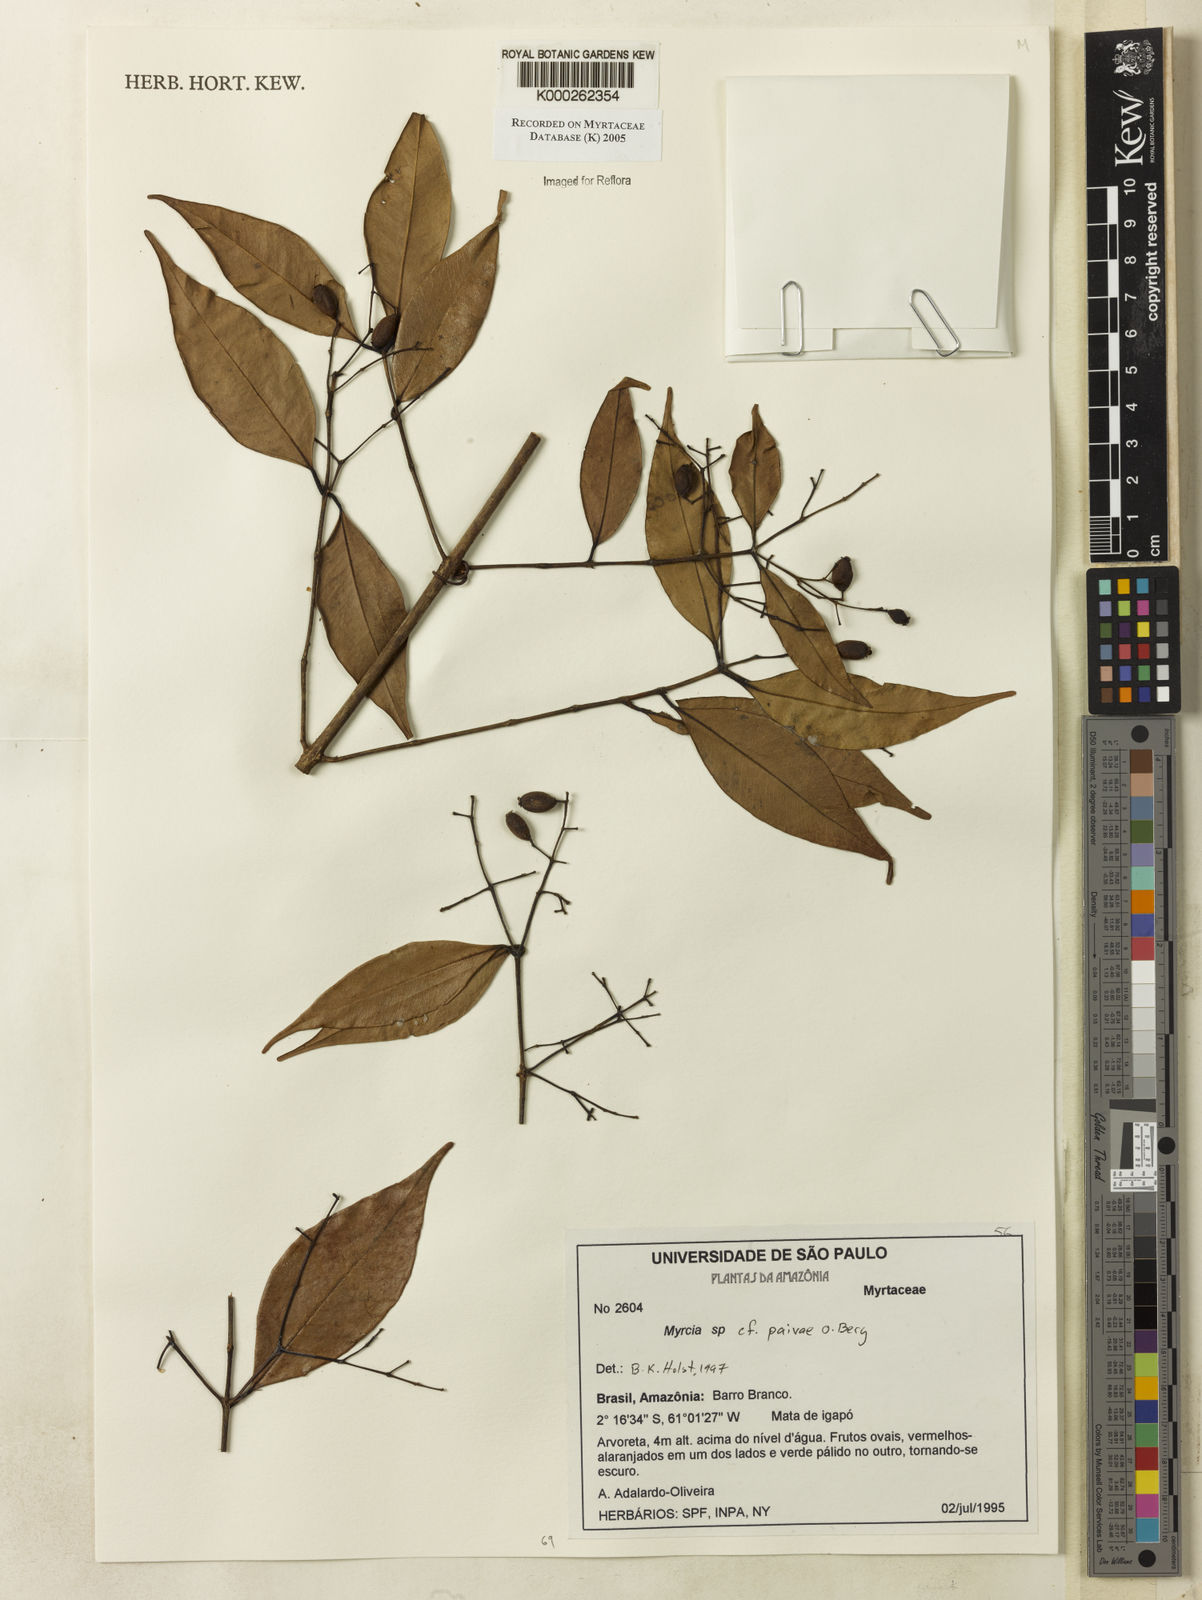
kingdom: Plantae
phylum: Tracheophyta
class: Magnoliopsida
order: Myrtales
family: Myrtaceae
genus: Myrcia
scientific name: Myrcia paivae
